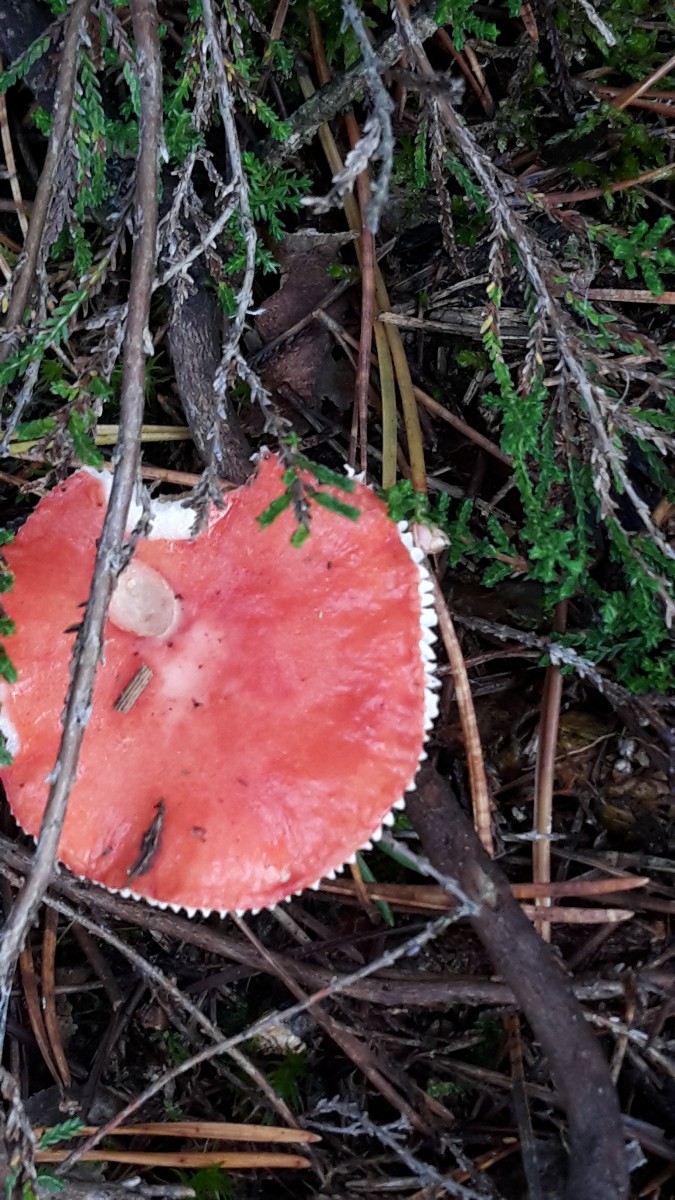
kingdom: Fungi
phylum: Basidiomycota
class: Agaricomycetes
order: Russulales
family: Russulaceae
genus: Russula
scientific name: Russula emetica
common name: stor gift-skørhat
